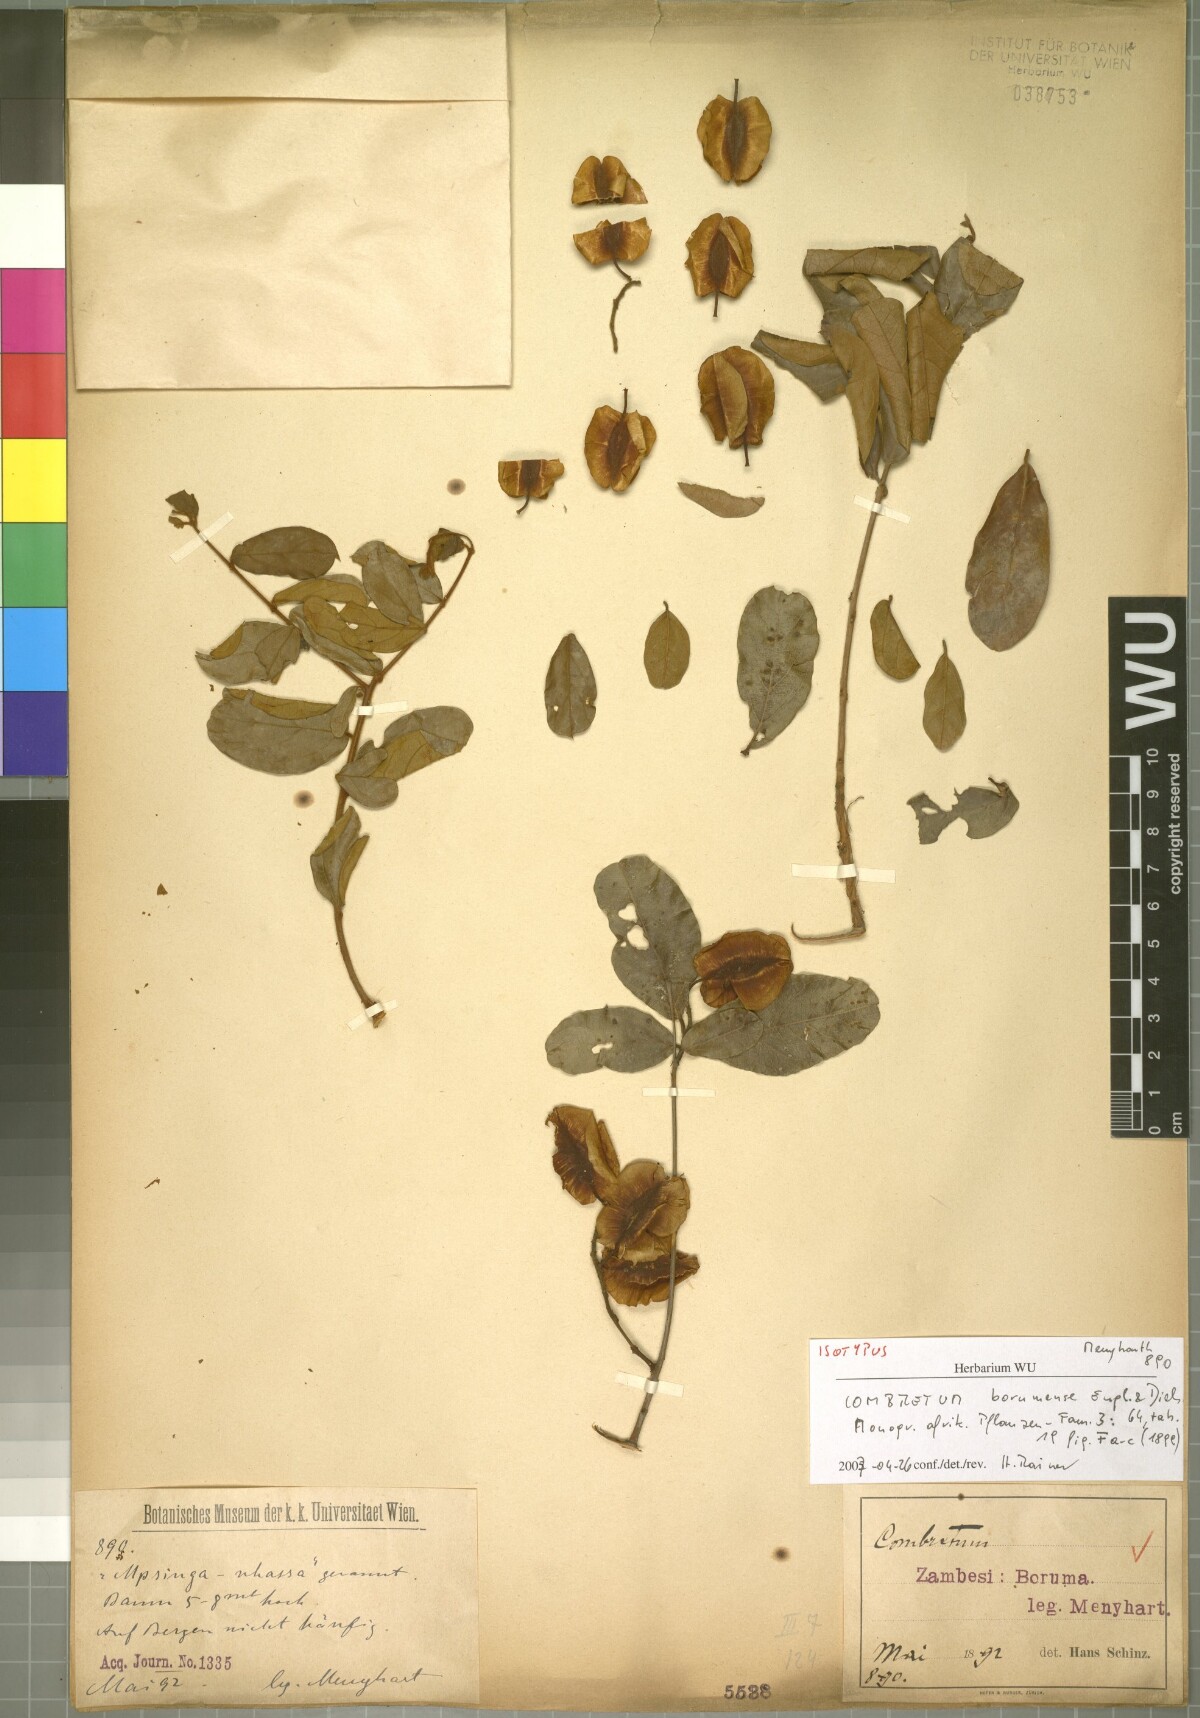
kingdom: Plantae
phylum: Tracheophyta
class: Magnoliopsida
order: Myrtales
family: Combretaceae
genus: Combretum
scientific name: Combretum hereroense
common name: Russet bushwillow
